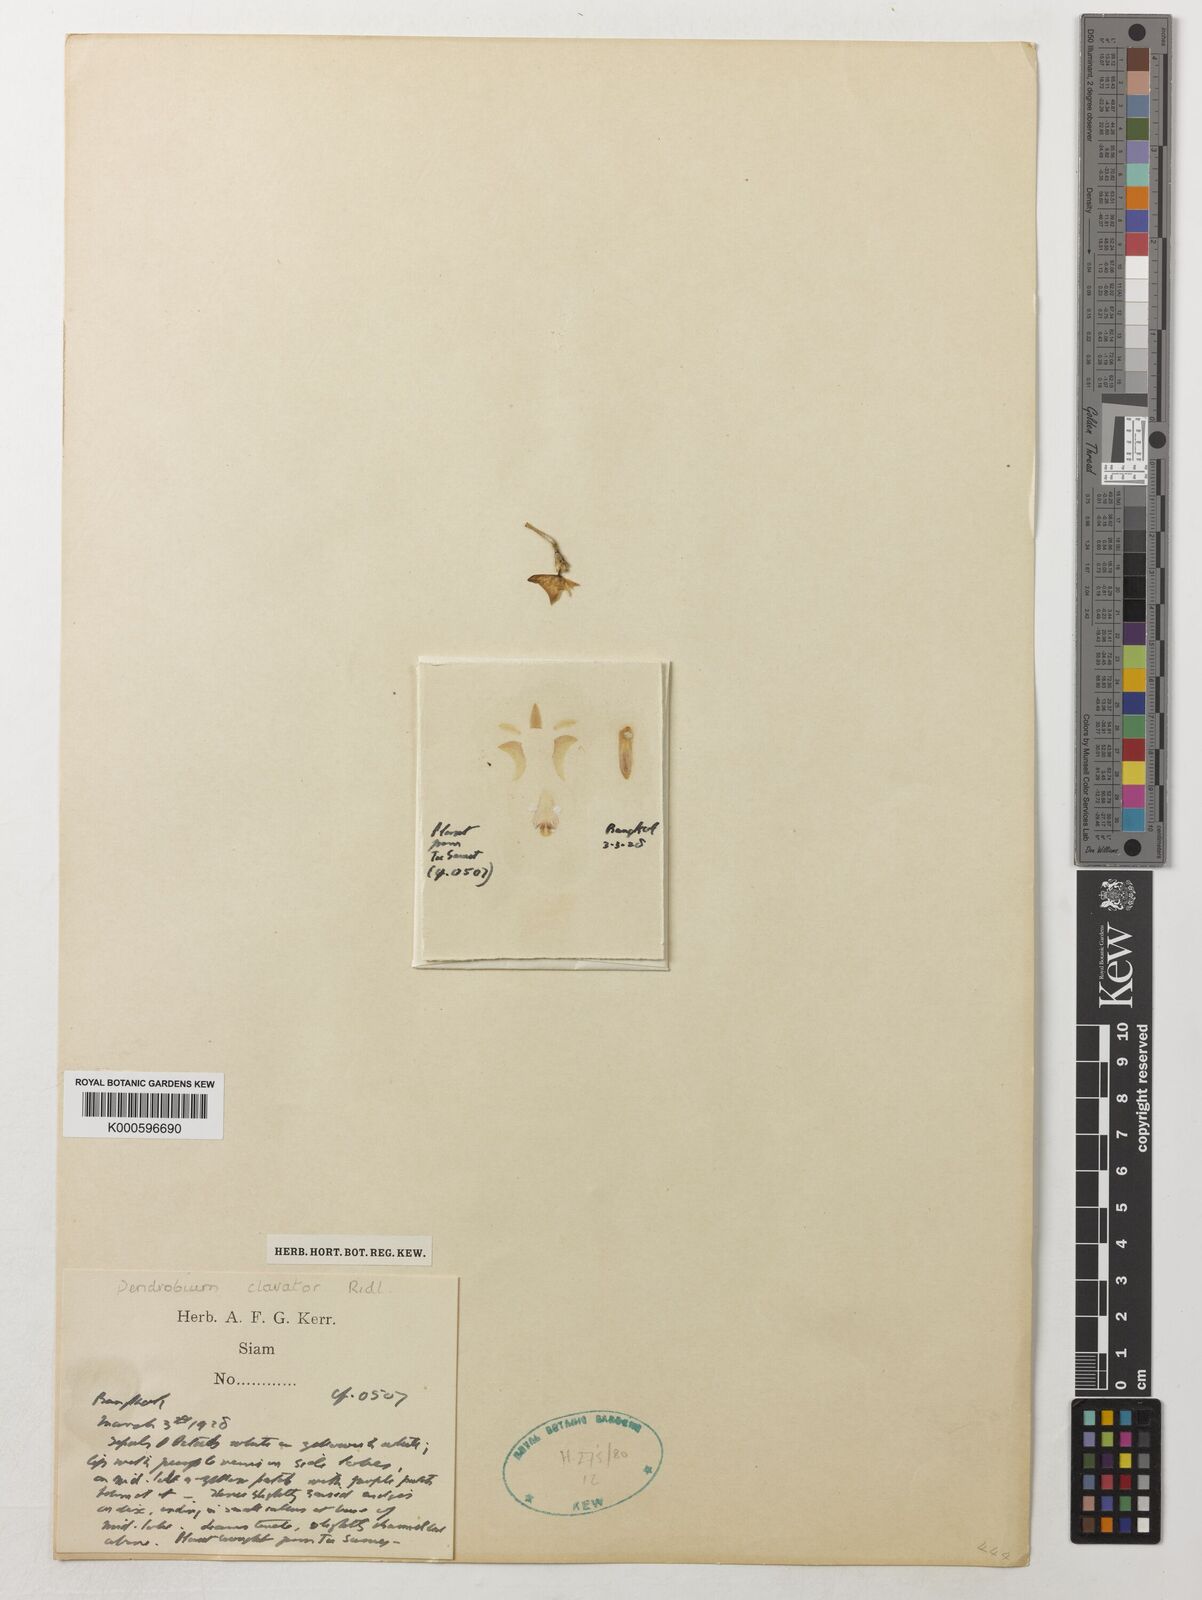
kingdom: Plantae
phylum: Tracheophyta
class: Liliopsida
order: Asparagales
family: Orchidaceae
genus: Dendrobium
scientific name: Dendrobium clavator
